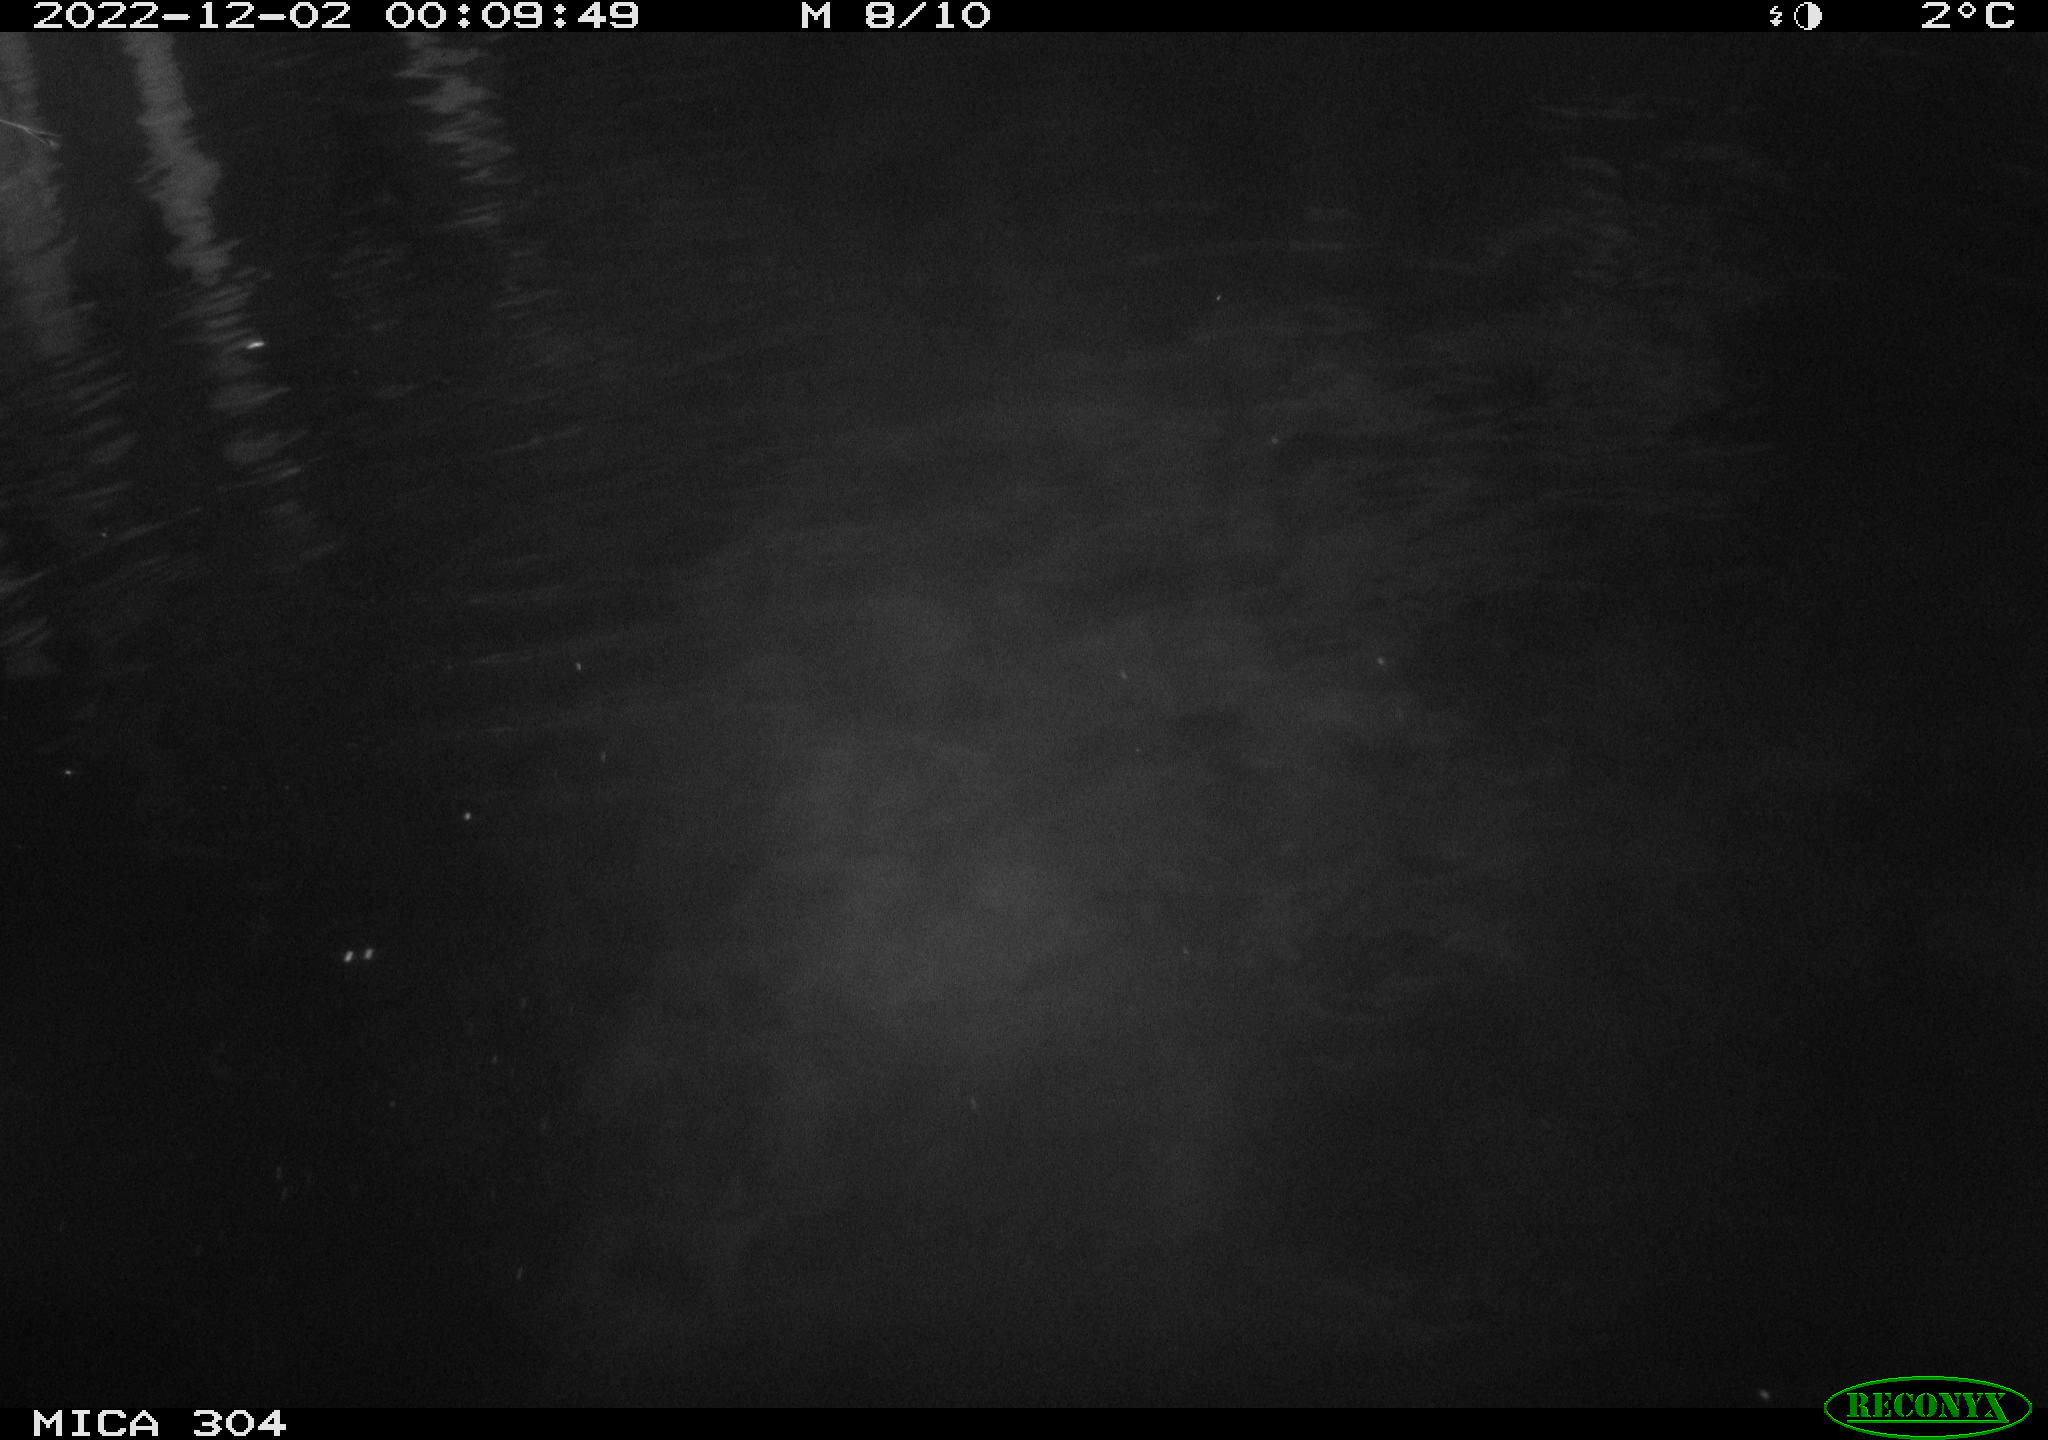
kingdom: Animalia
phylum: Chordata
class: Mammalia
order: Rodentia
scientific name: Rodentia
